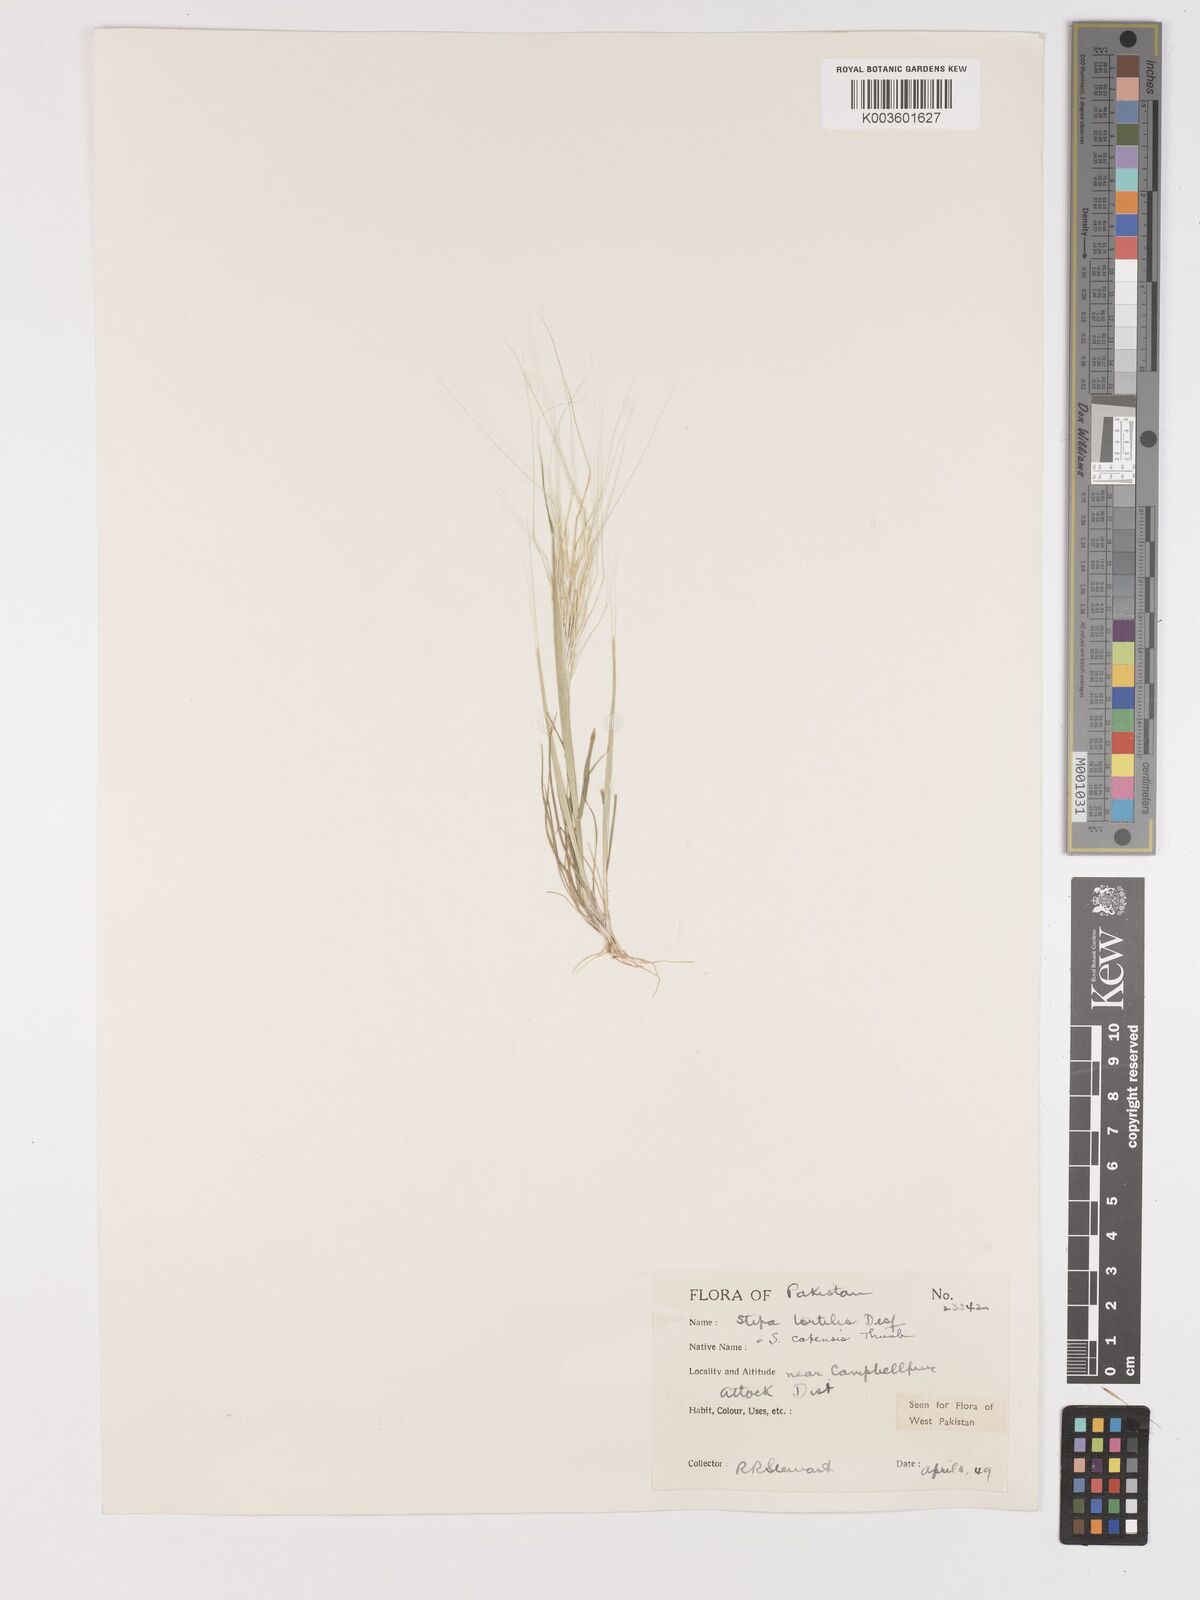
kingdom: Plantae
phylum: Tracheophyta
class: Liliopsida
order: Poales
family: Poaceae
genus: Stipellula
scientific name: Stipellula capensis
